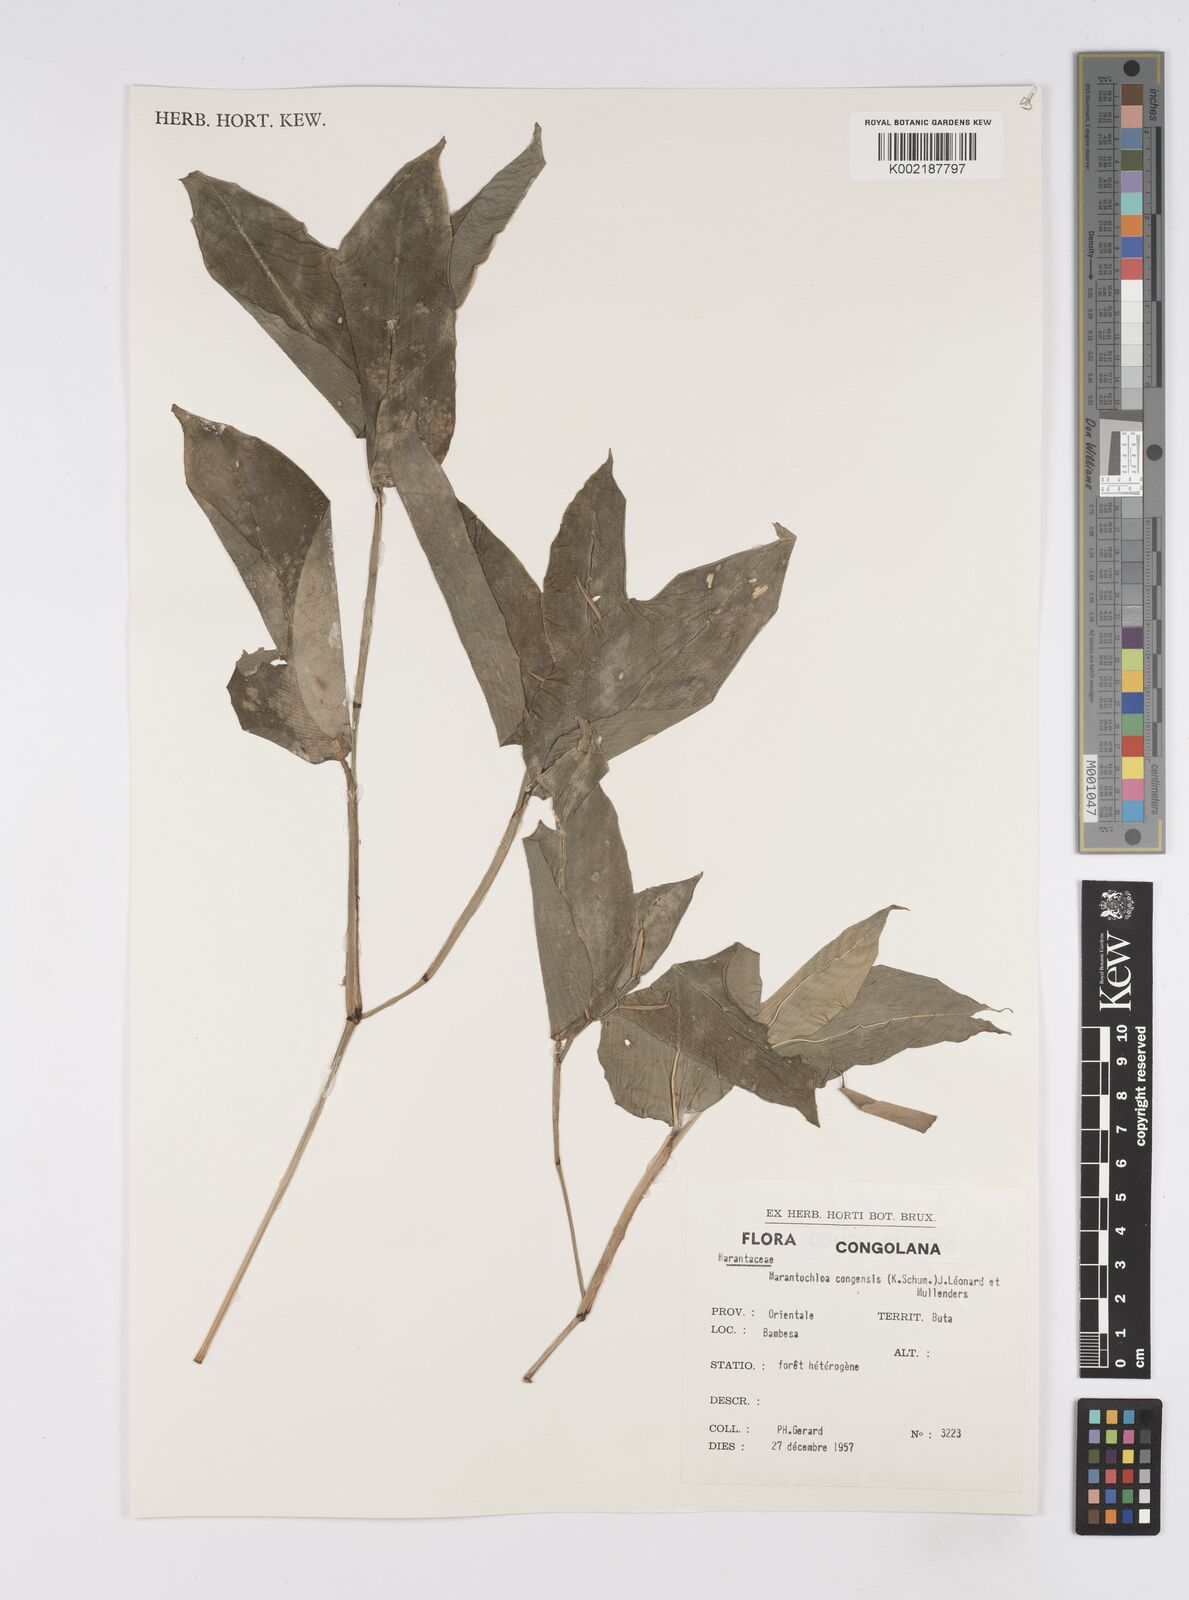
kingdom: Plantae
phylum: Tracheophyta
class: Liliopsida
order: Zingiberales
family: Marantaceae
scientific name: Marantaceae
